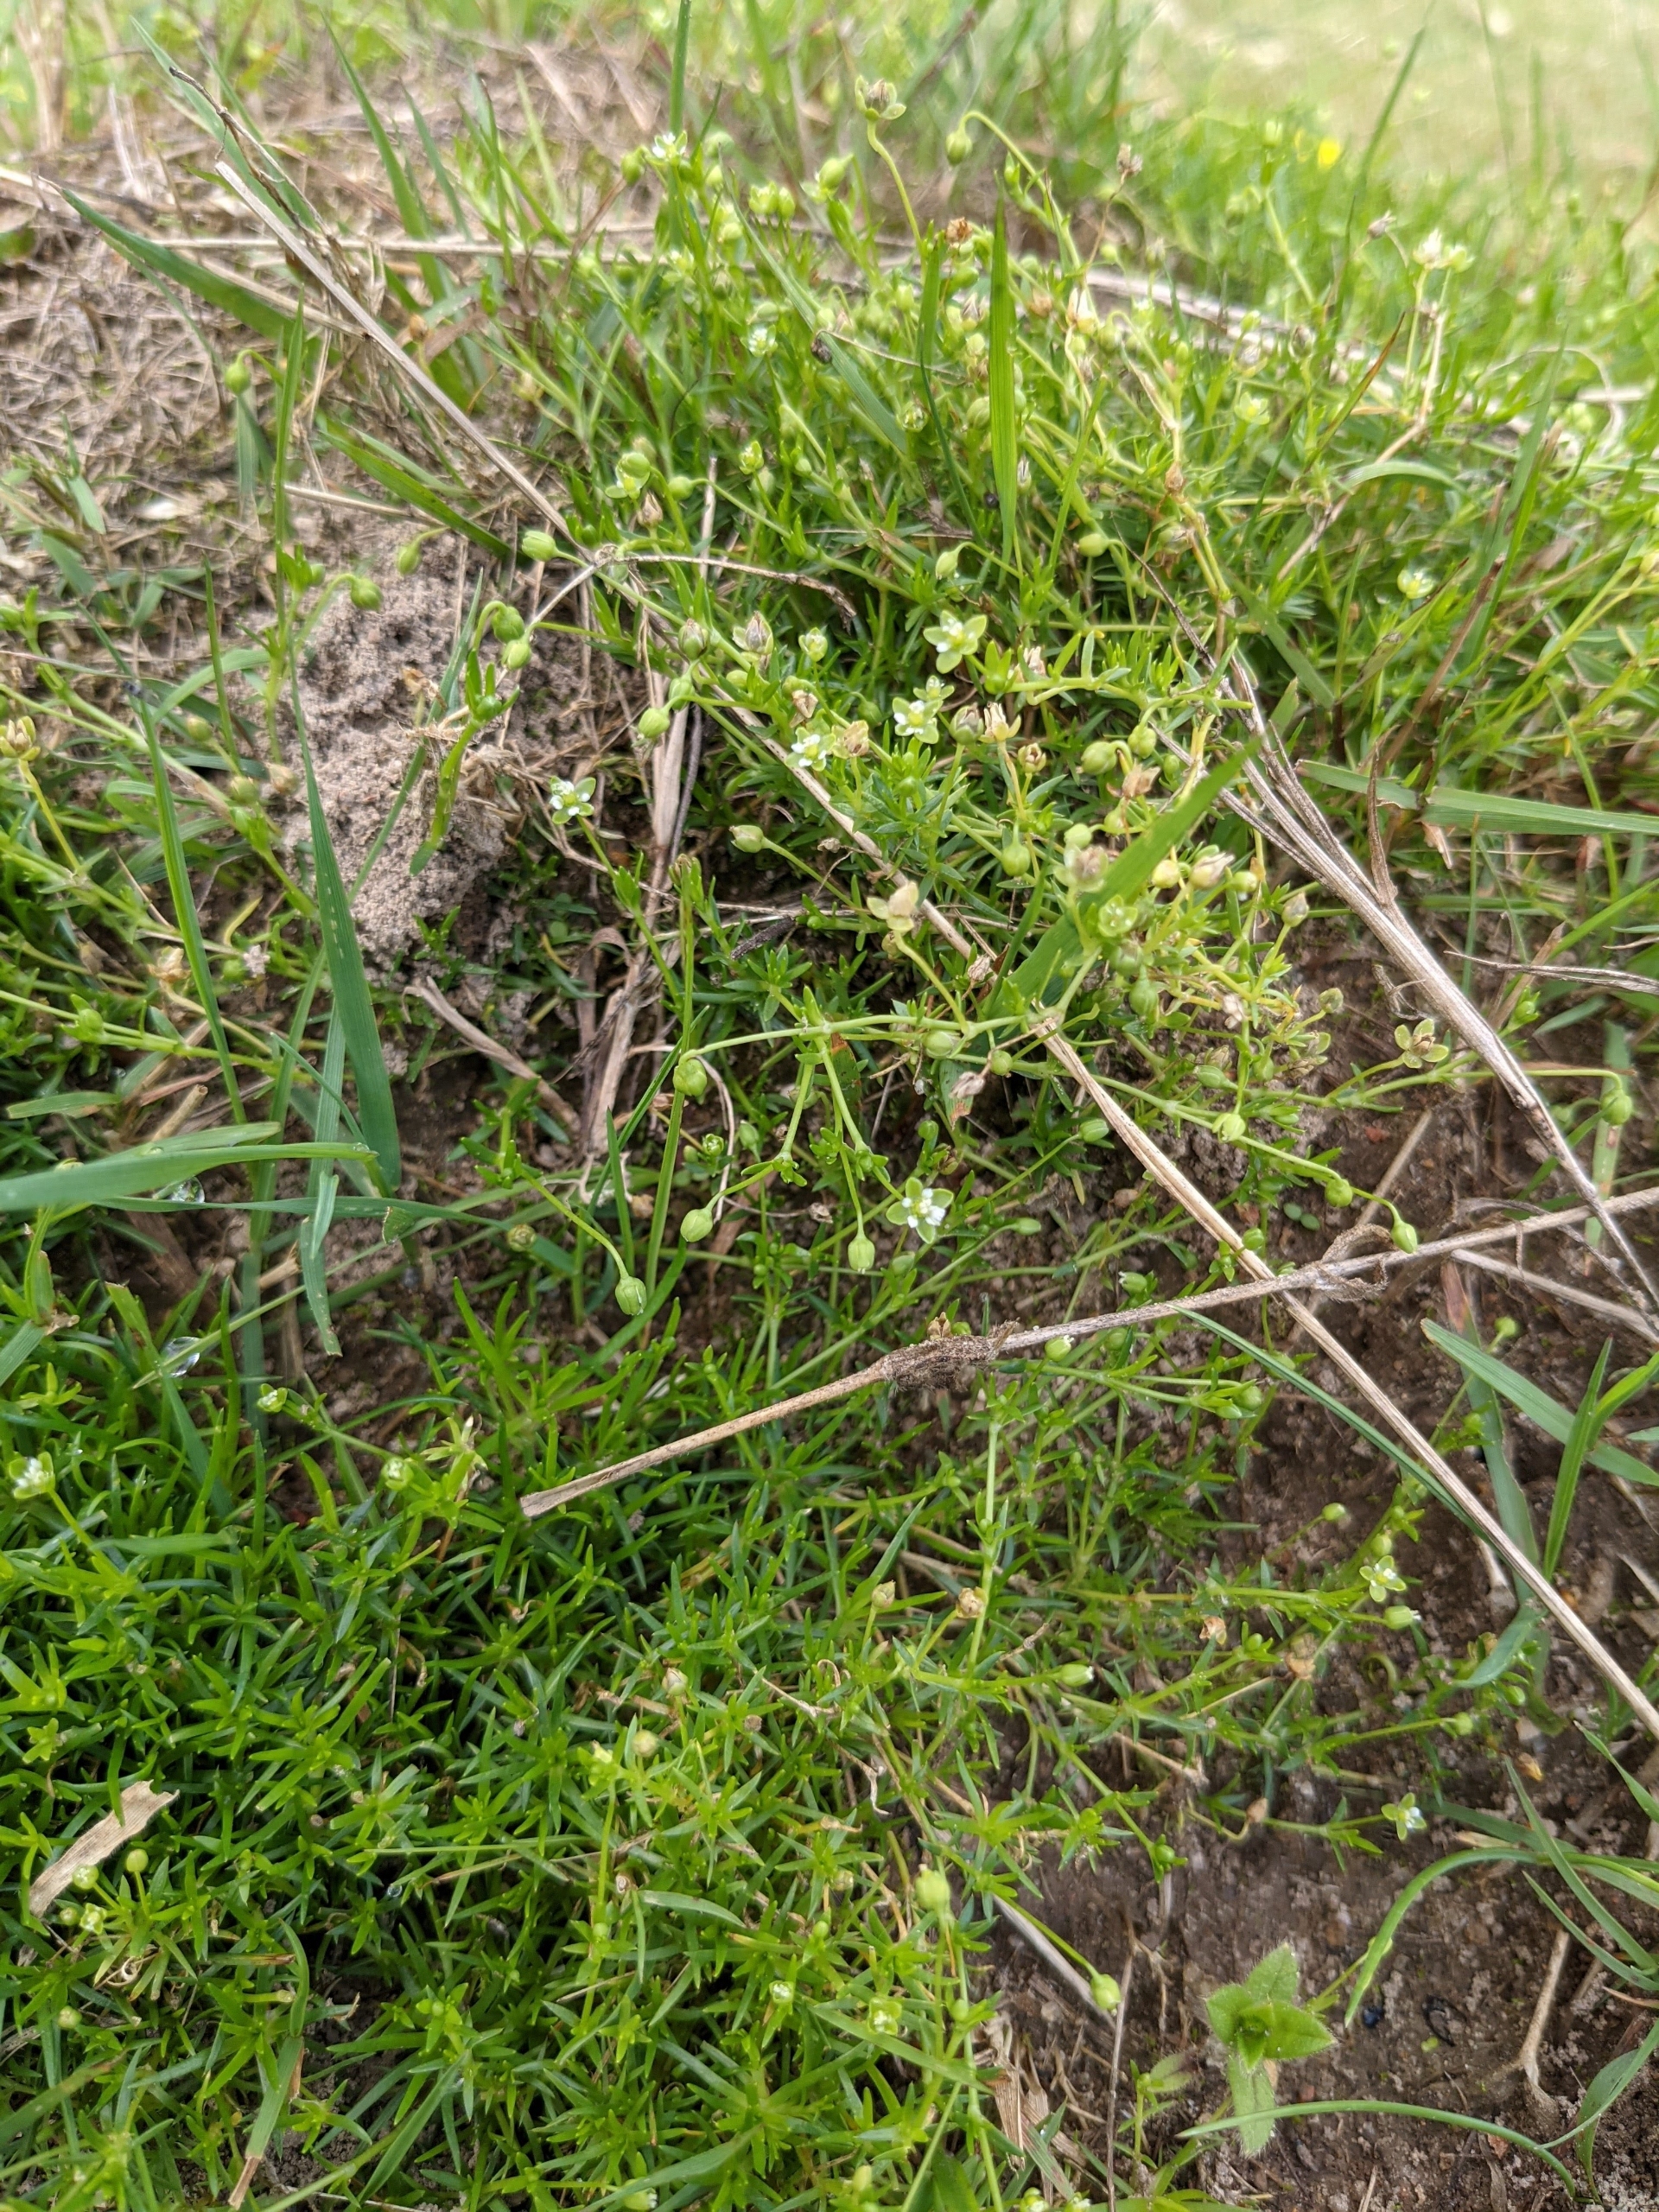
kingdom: Plantae
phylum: Tracheophyta
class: Magnoliopsida
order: Caryophyllales
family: Caryophyllaceae
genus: Sagina
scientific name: Sagina procumbens
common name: Almindelig firling
